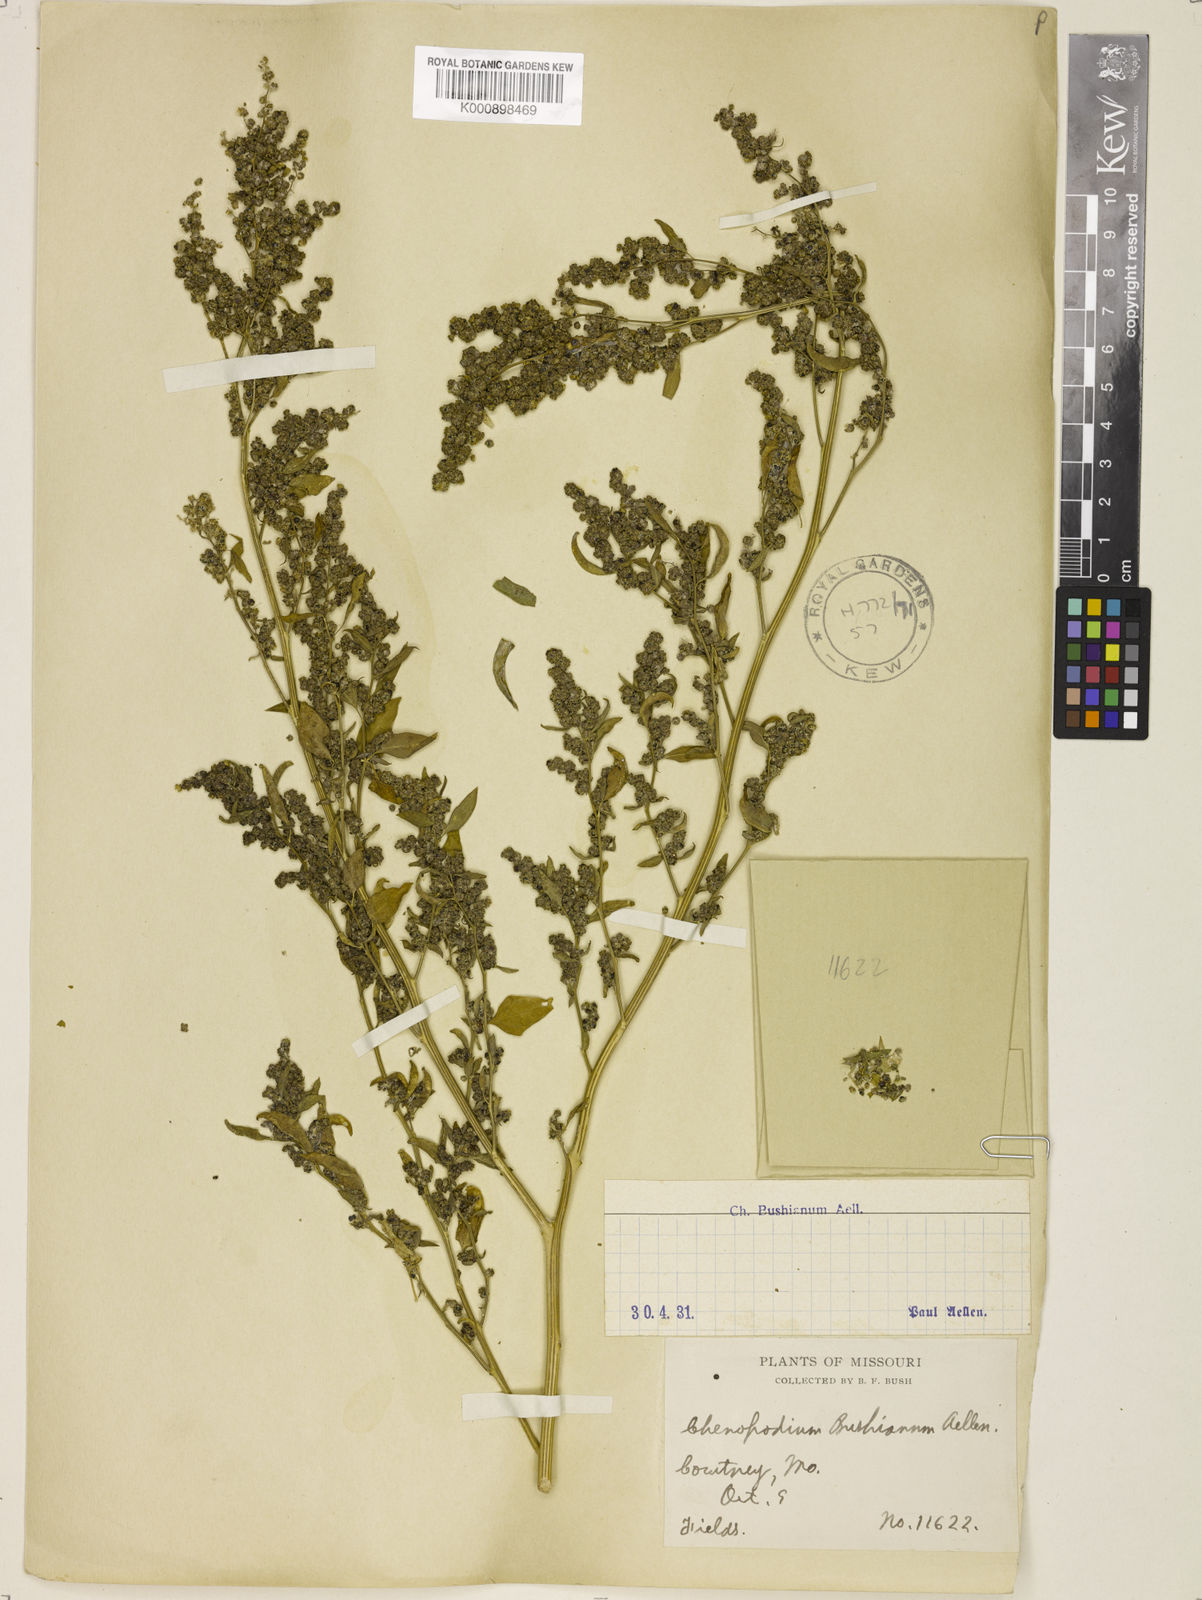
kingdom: Plantae
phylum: Tracheophyta
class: Magnoliopsida
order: Caryophyllales
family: Amaranthaceae
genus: Chenopodium
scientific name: Chenopodium berlandieri
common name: Pit-seed goosefoot
